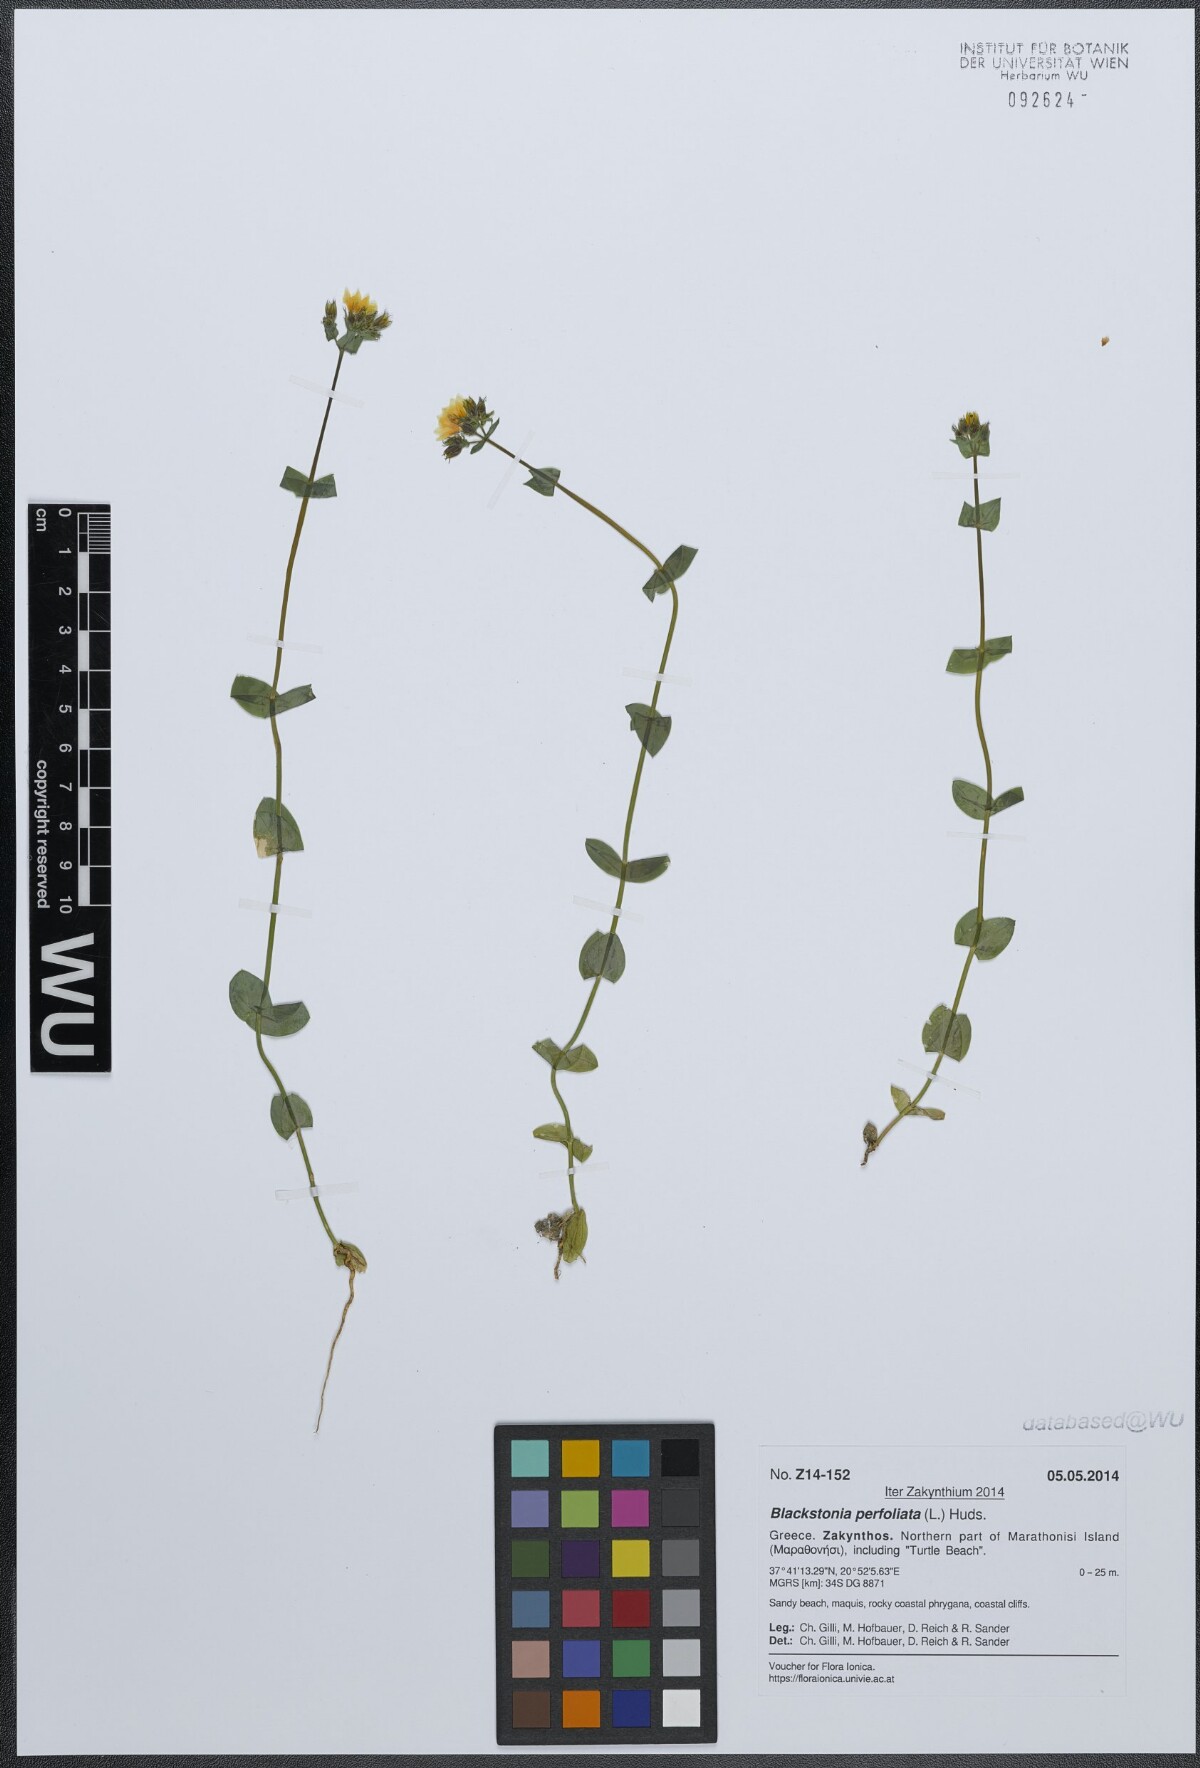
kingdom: Plantae
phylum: Tracheophyta
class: Magnoliopsida
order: Gentianales
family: Gentianaceae
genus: Blackstonia
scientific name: Blackstonia perfoliata
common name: Yellow-wort
